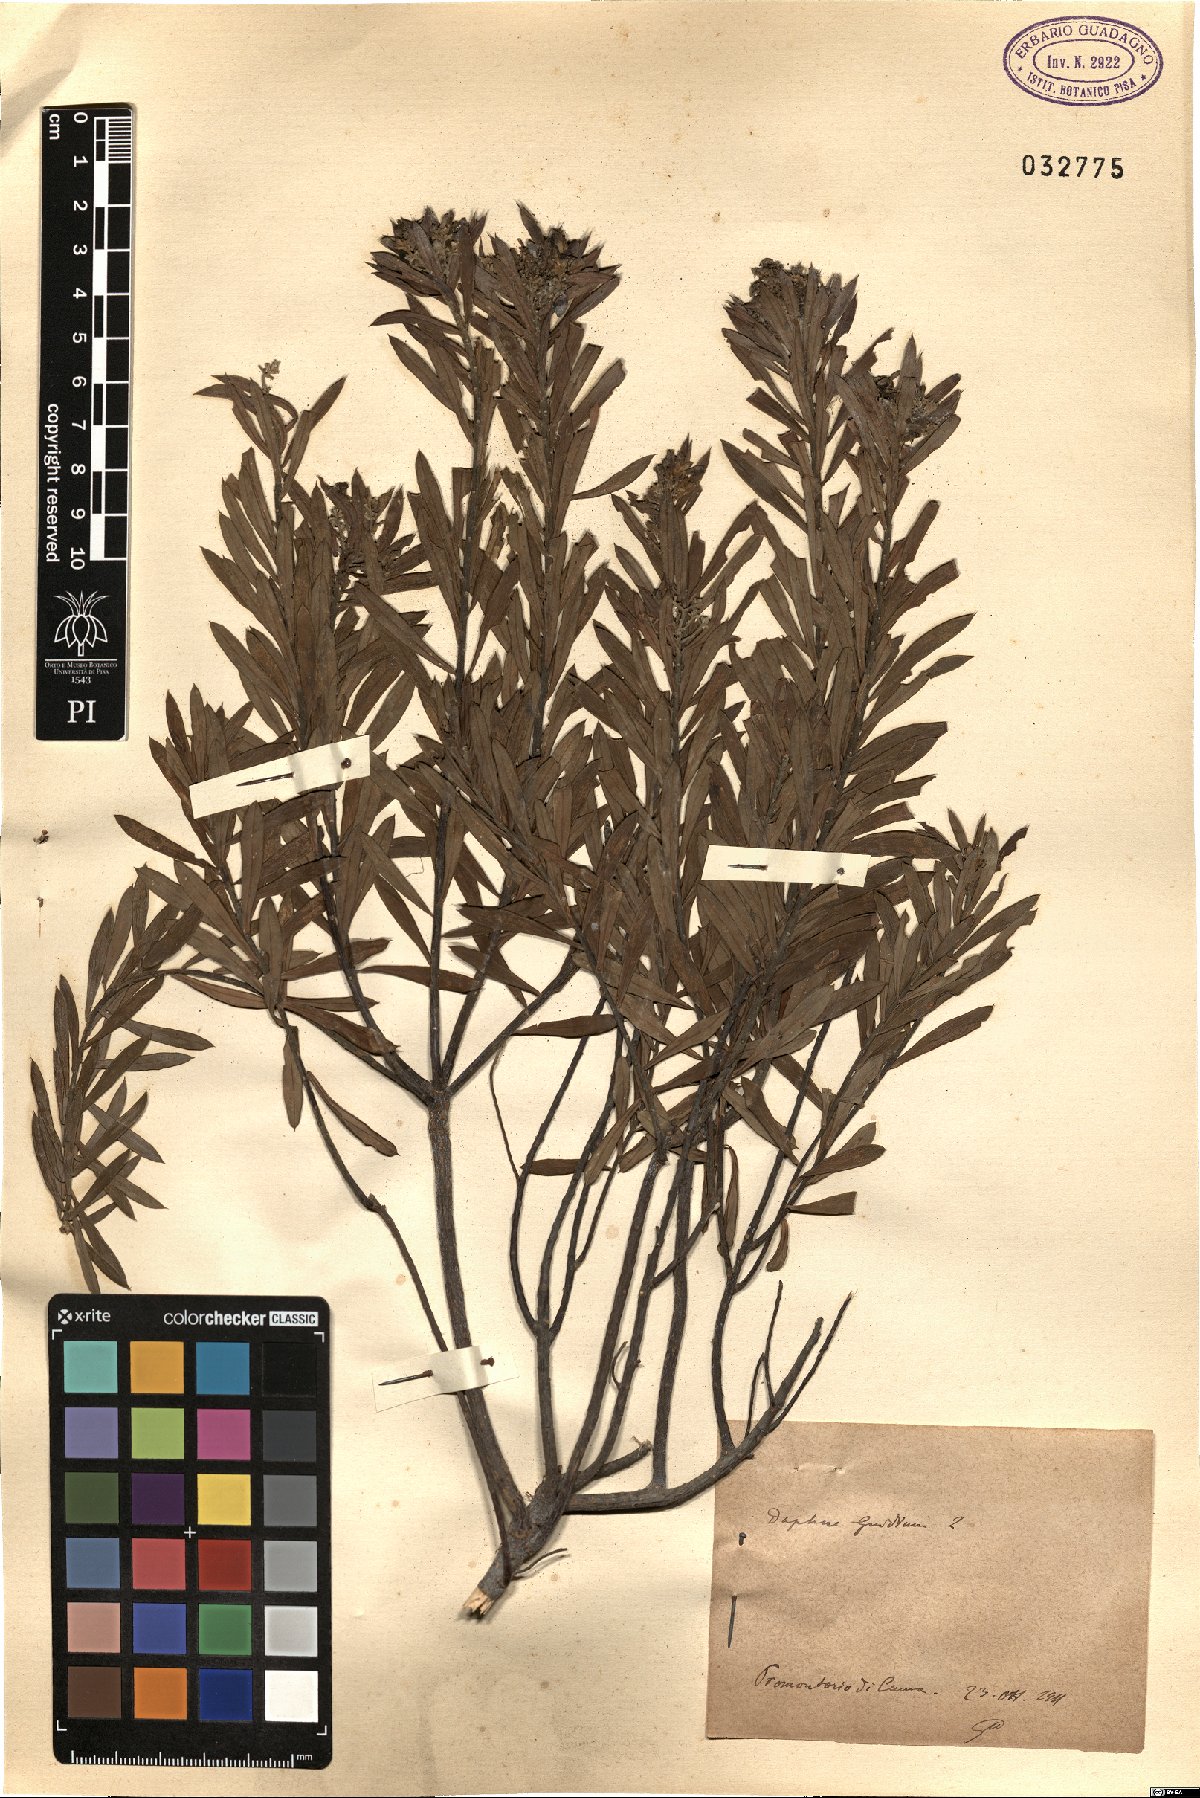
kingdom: Plantae
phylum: Tracheophyta
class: Magnoliopsida
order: Malvales
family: Thymelaeaceae
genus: Daphne
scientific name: Daphne gnidium
